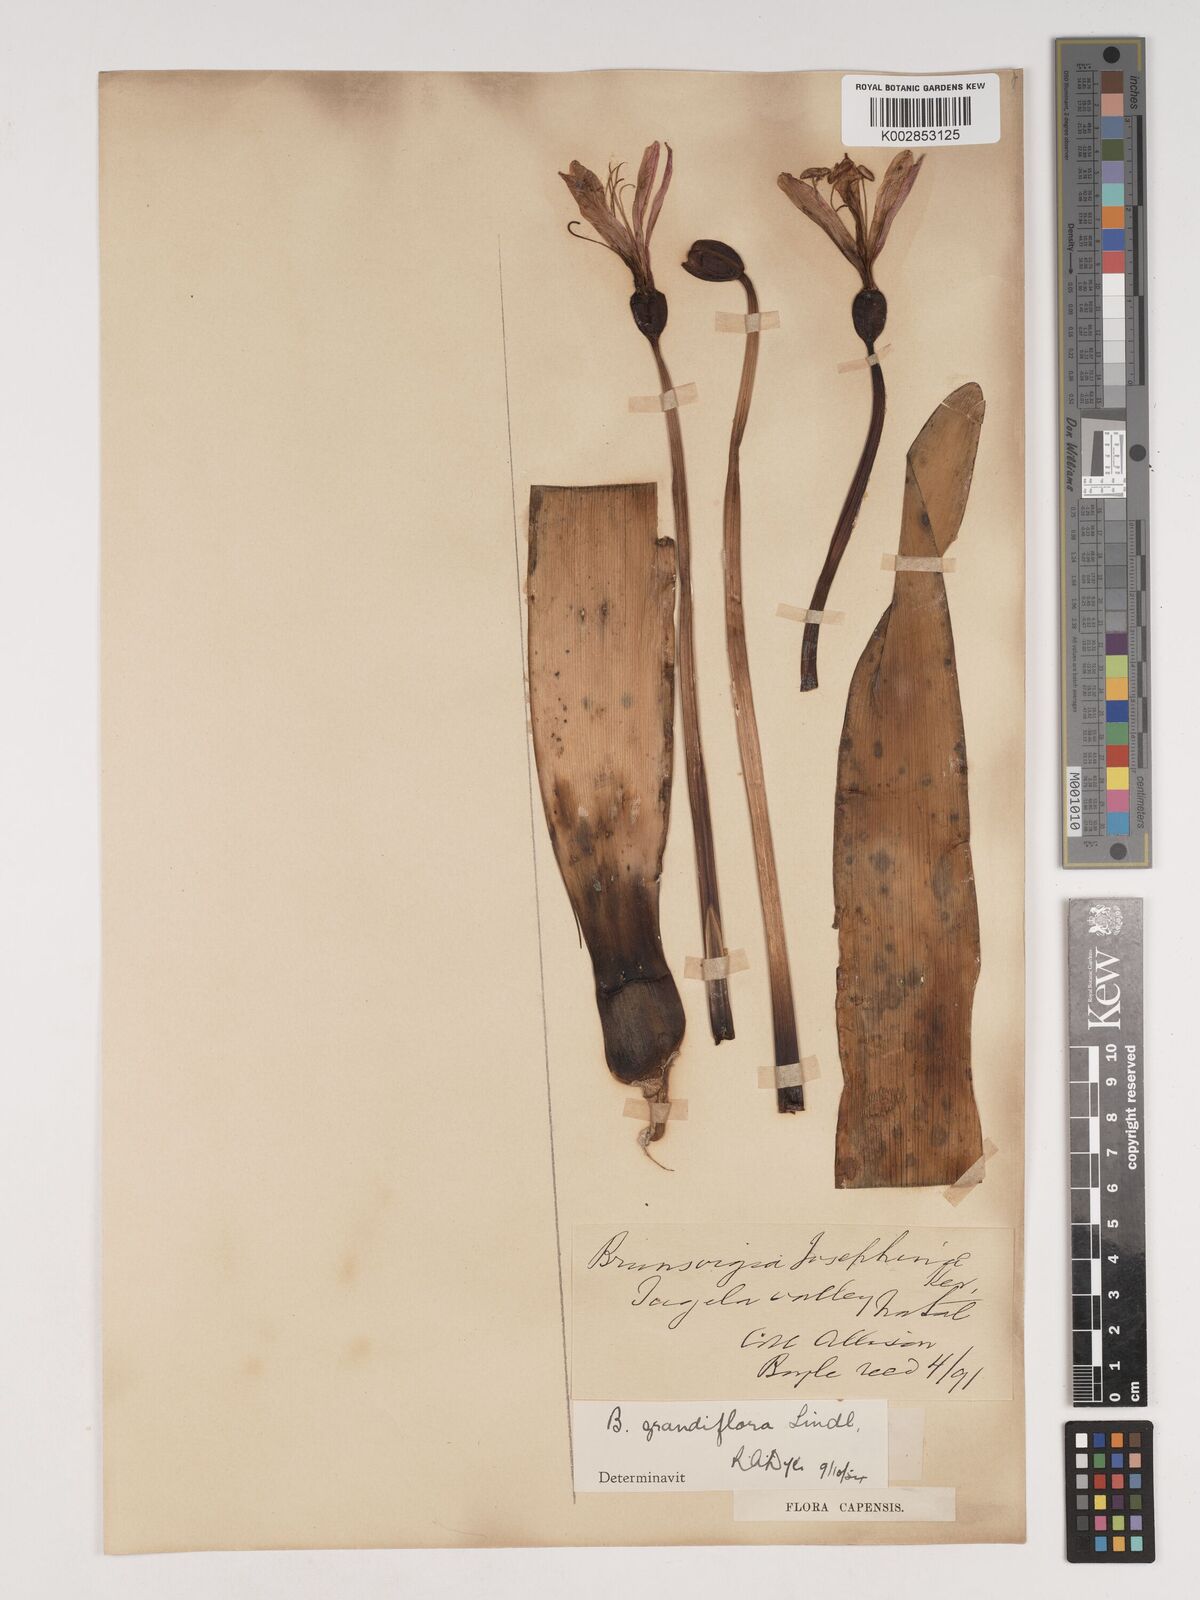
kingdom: Plantae
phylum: Tracheophyta
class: Liliopsida
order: Asparagales
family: Amaryllidaceae
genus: Brunsvigia
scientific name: Brunsvigia grandiflora
